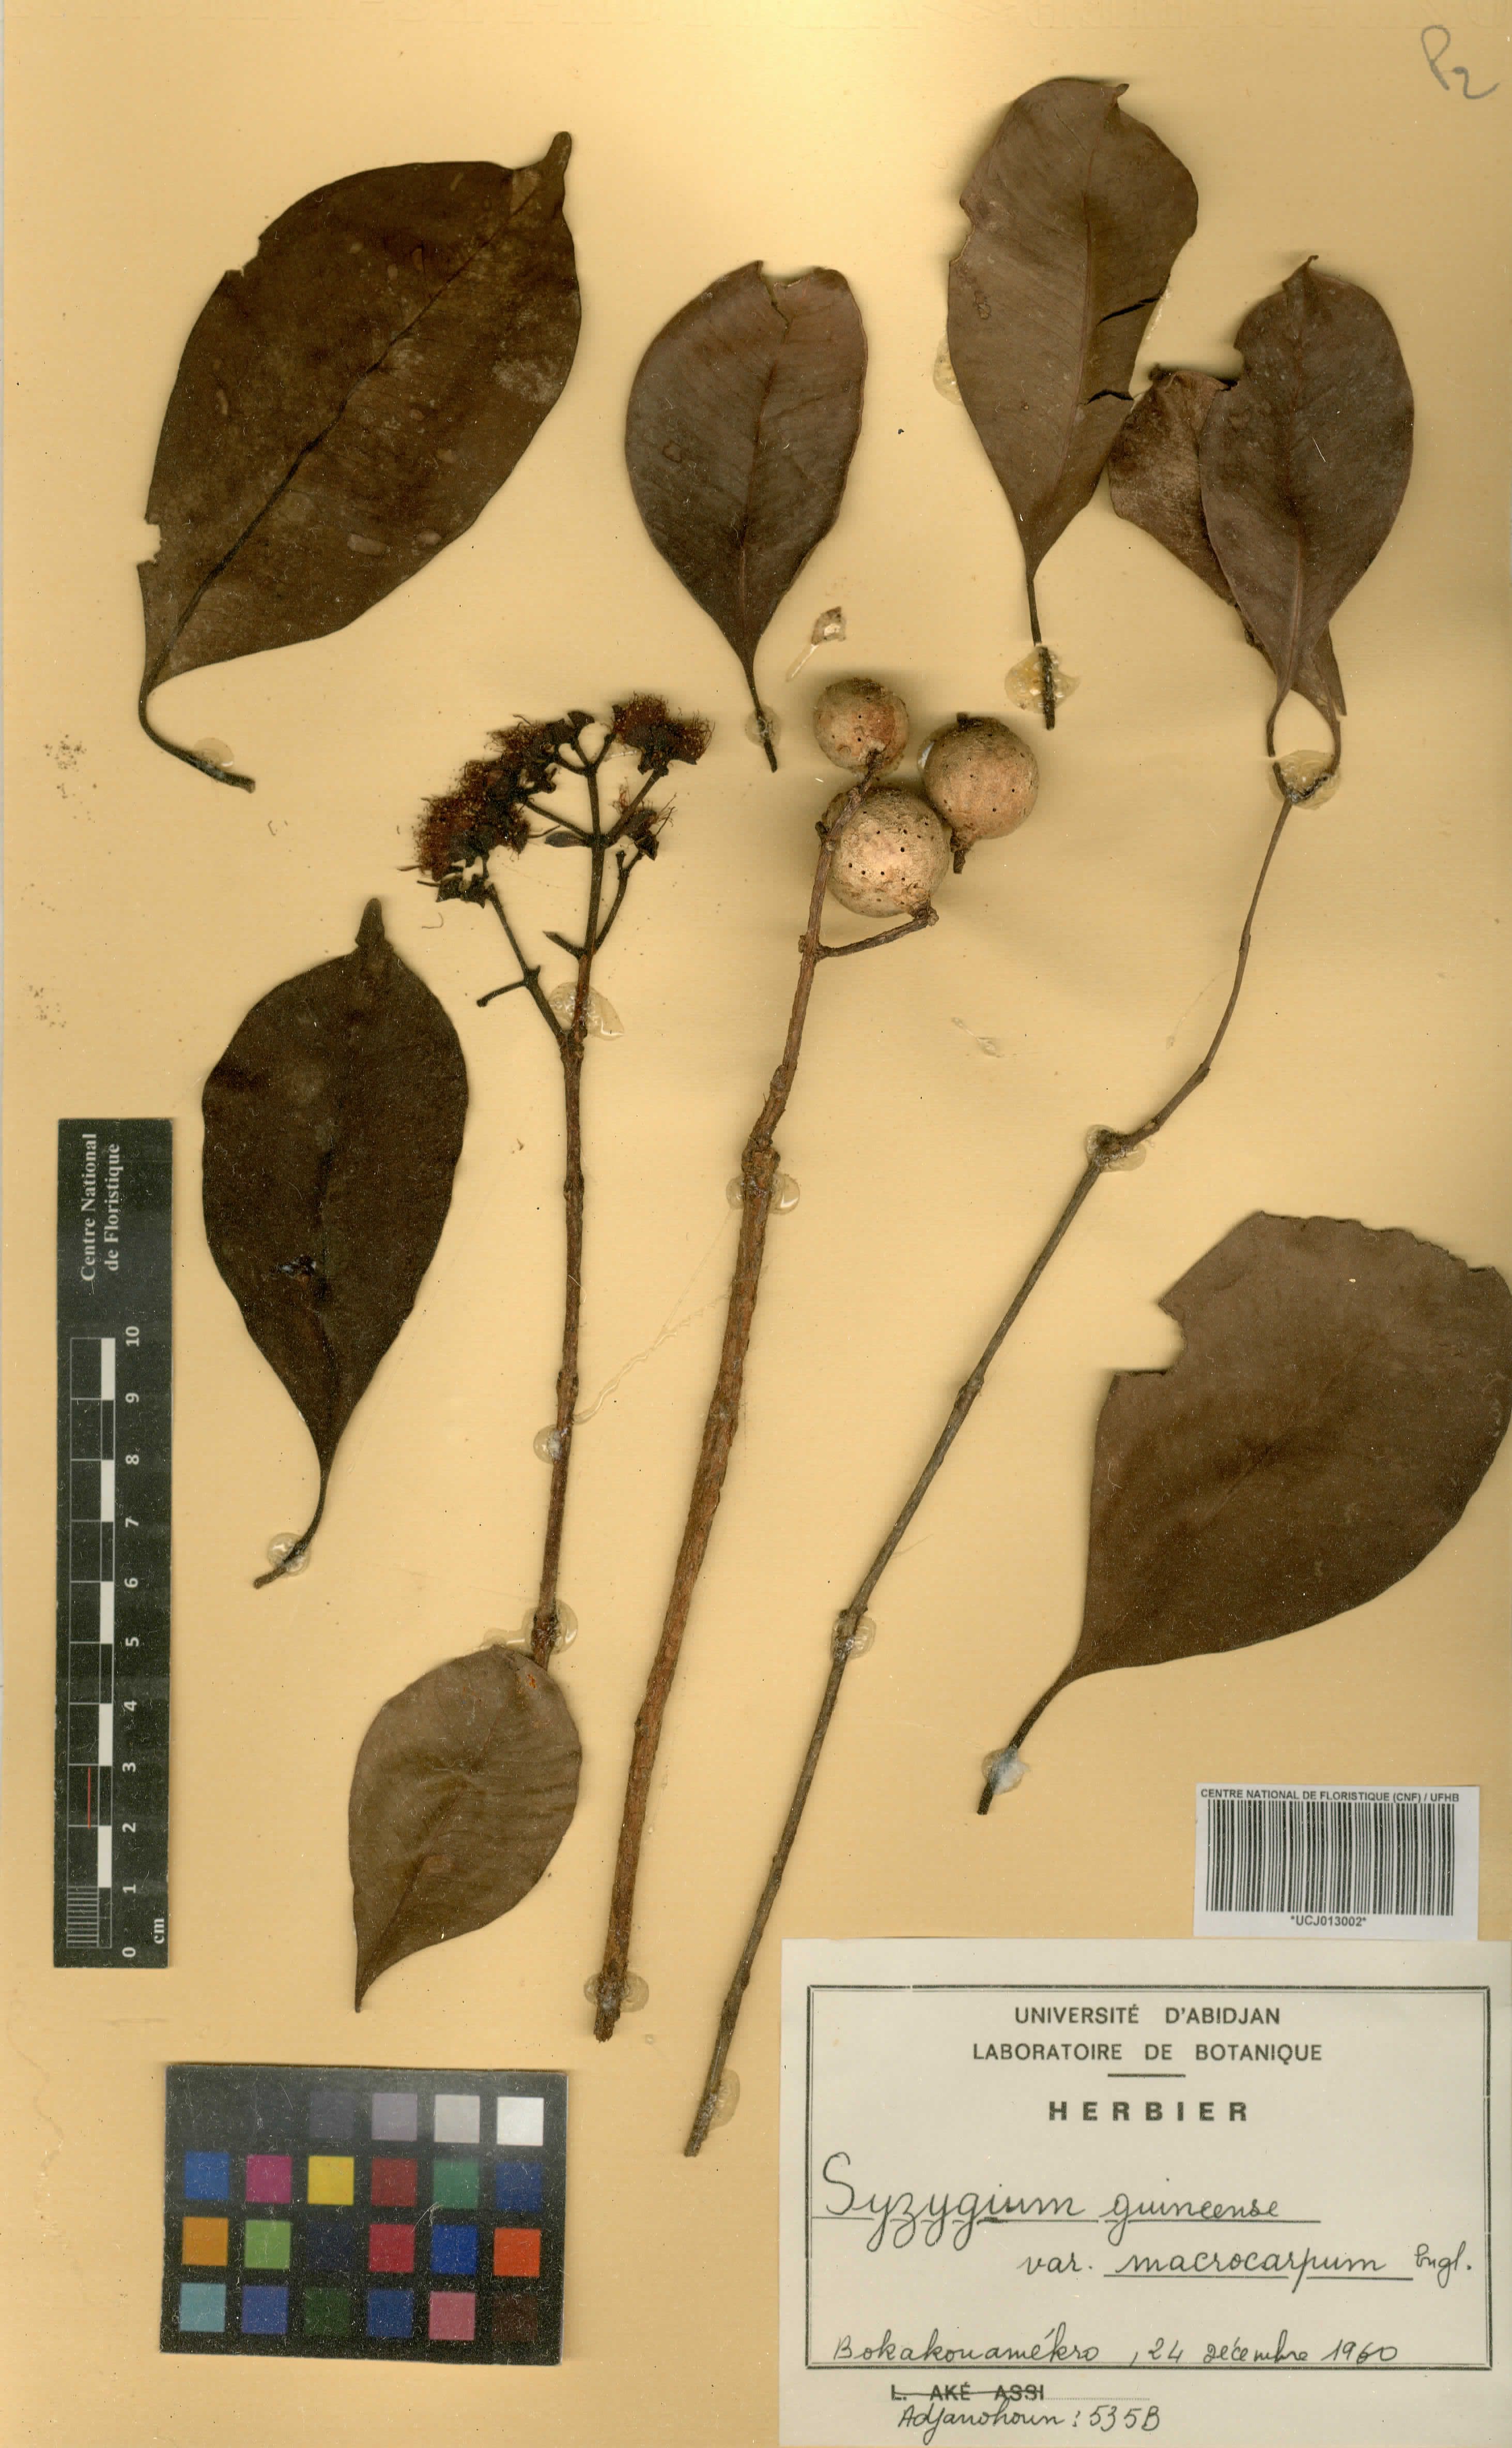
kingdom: Plantae
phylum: Tracheophyta
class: Magnoliopsida
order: Myrtales
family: Myrtaceae
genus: Syzygium
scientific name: Syzygium guineense
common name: Water-pear
